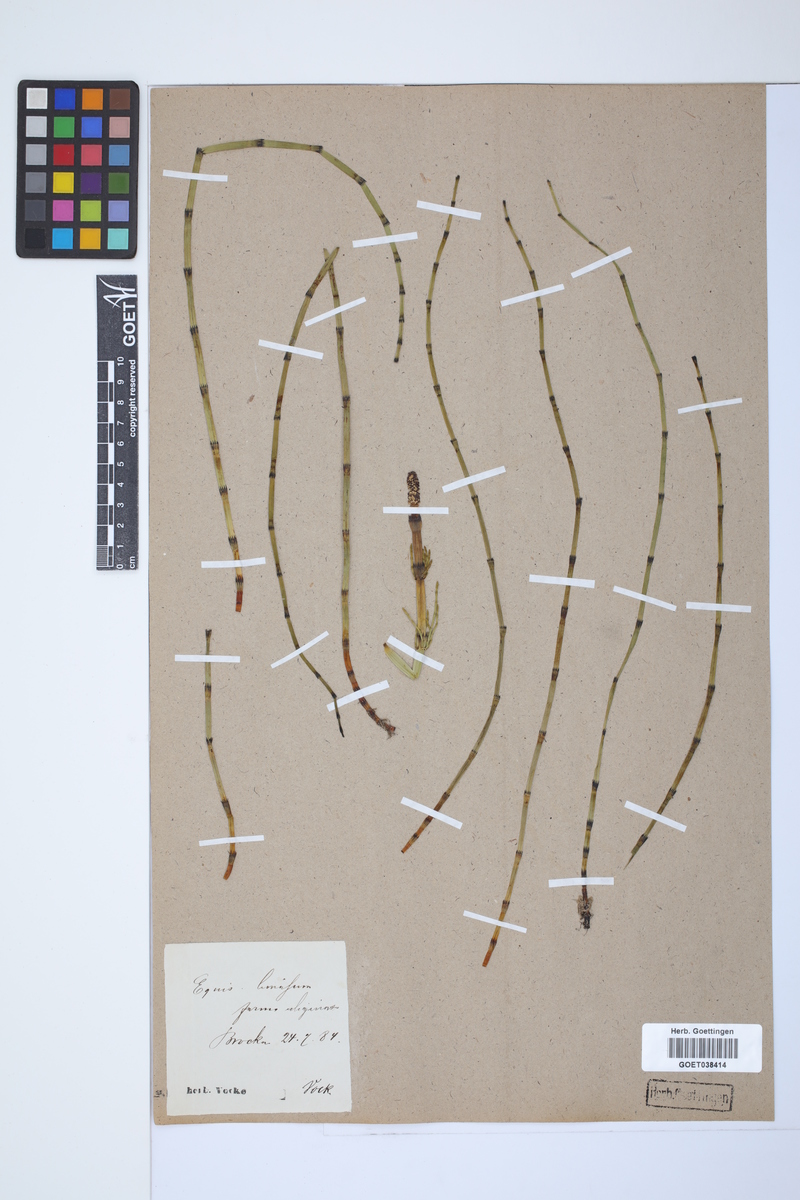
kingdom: Plantae
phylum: Tracheophyta
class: Polypodiopsida
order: Equisetales
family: Equisetaceae
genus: Equisetum
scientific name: Equisetum fluviatile
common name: Water horsetail
